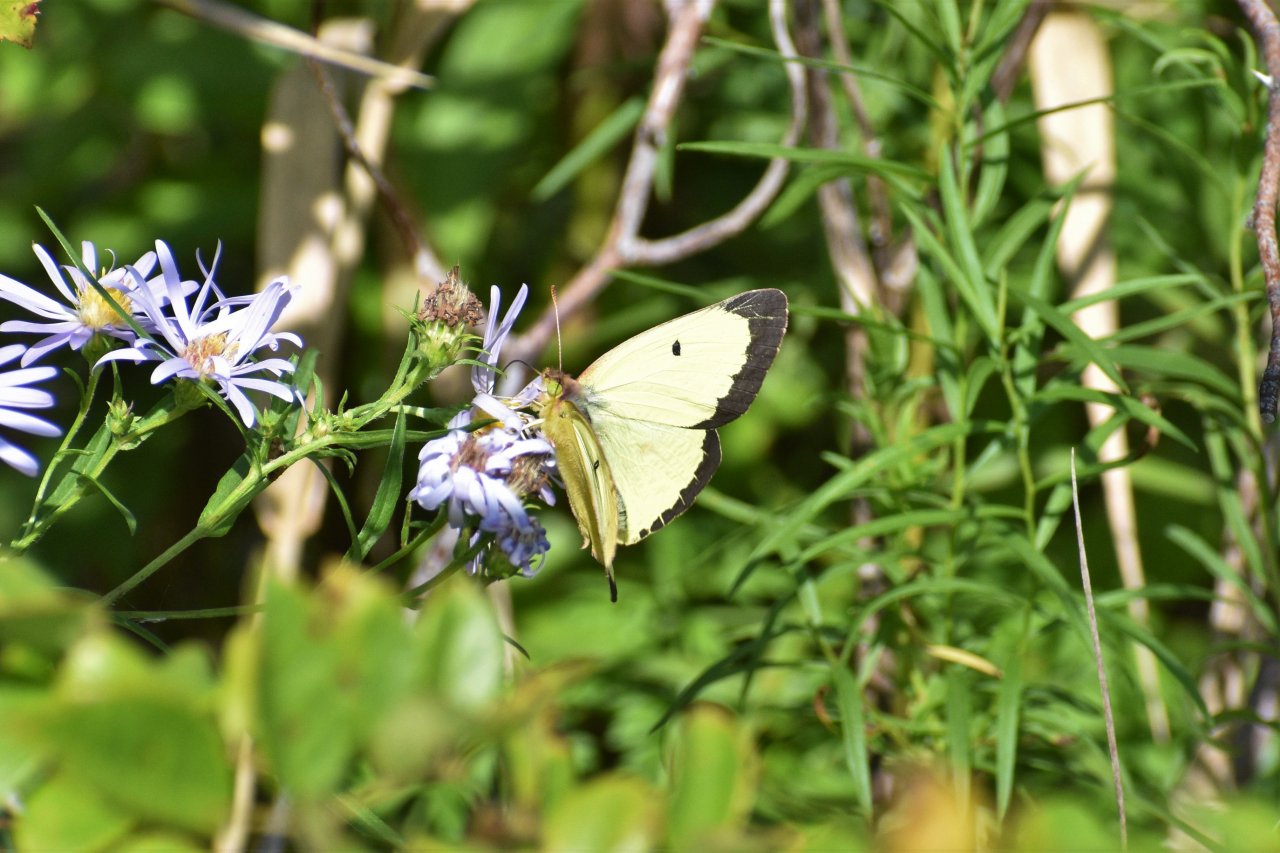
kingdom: Animalia
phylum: Arthropoda
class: Insecta
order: Lepidoptera
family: Pieridae
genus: Colias
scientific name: Colias philodice
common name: Clouded Sulphur
